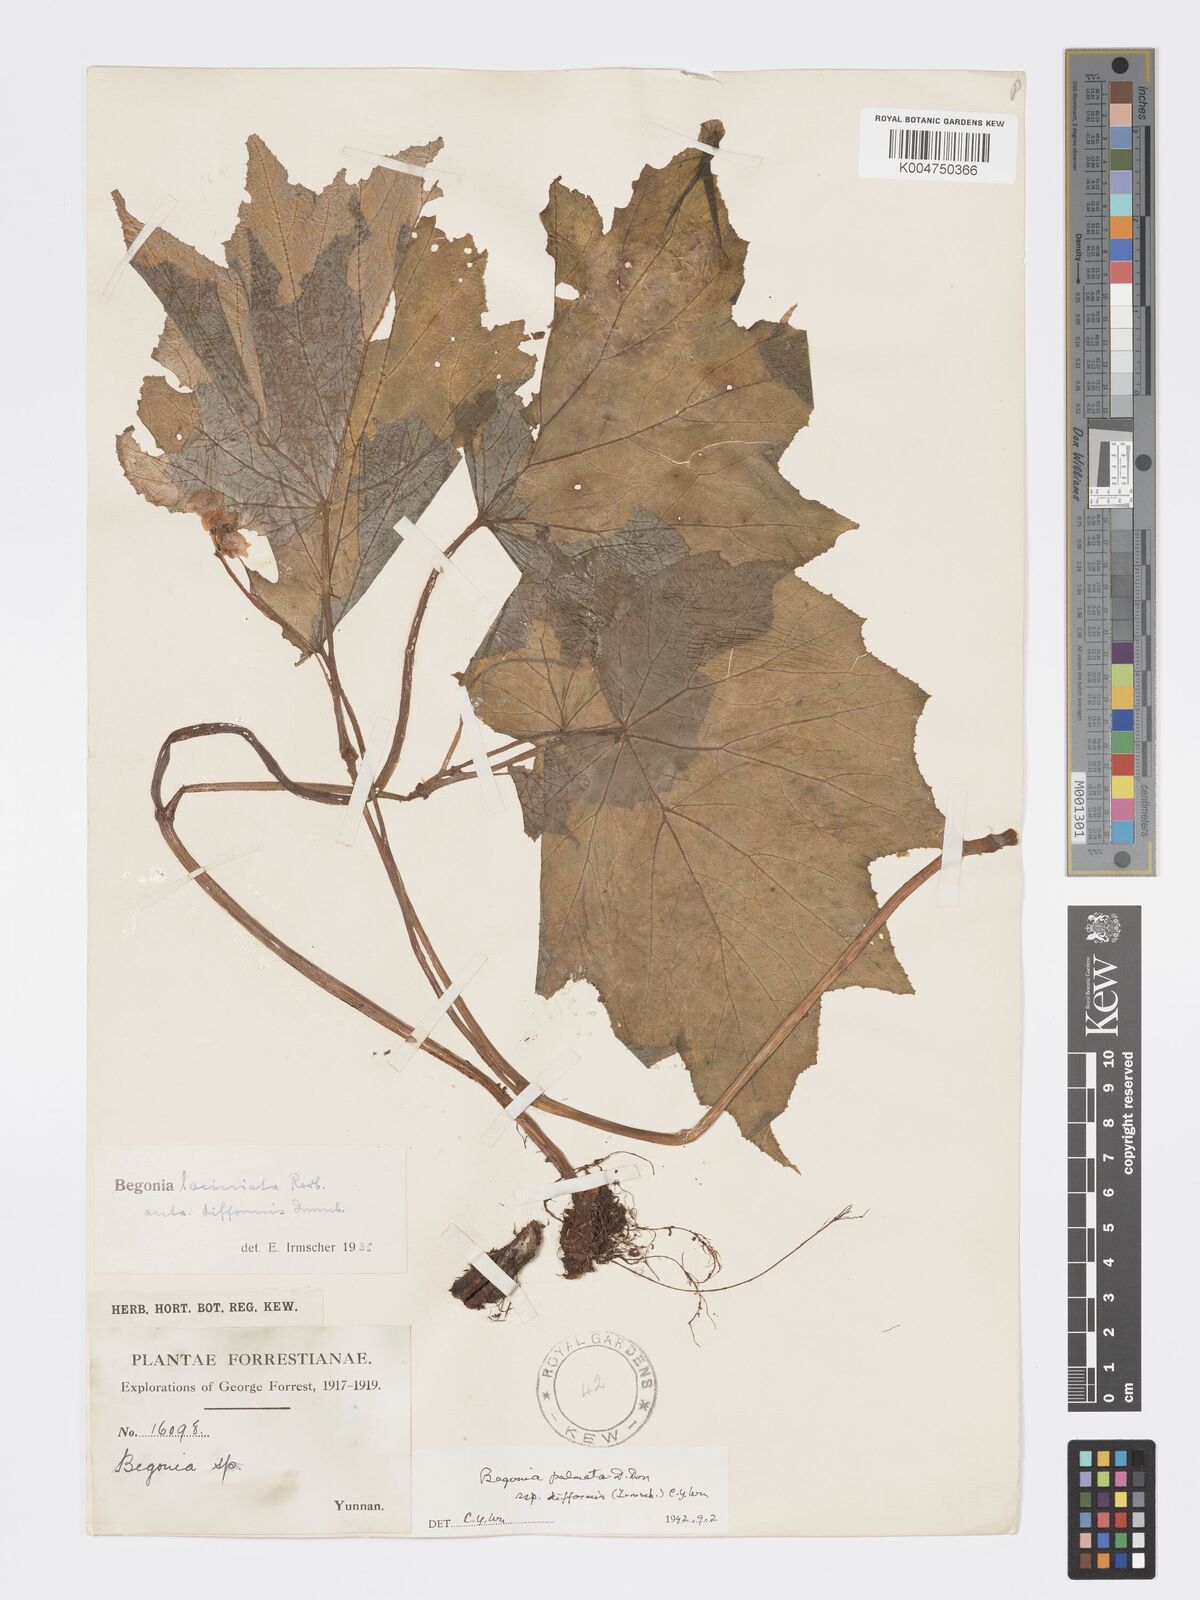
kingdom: Plantae
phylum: Tracheophyta
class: Magnoliopsida
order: Cucurbitales
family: Begoniaceae
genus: Begonia
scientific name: Begonia palmata
